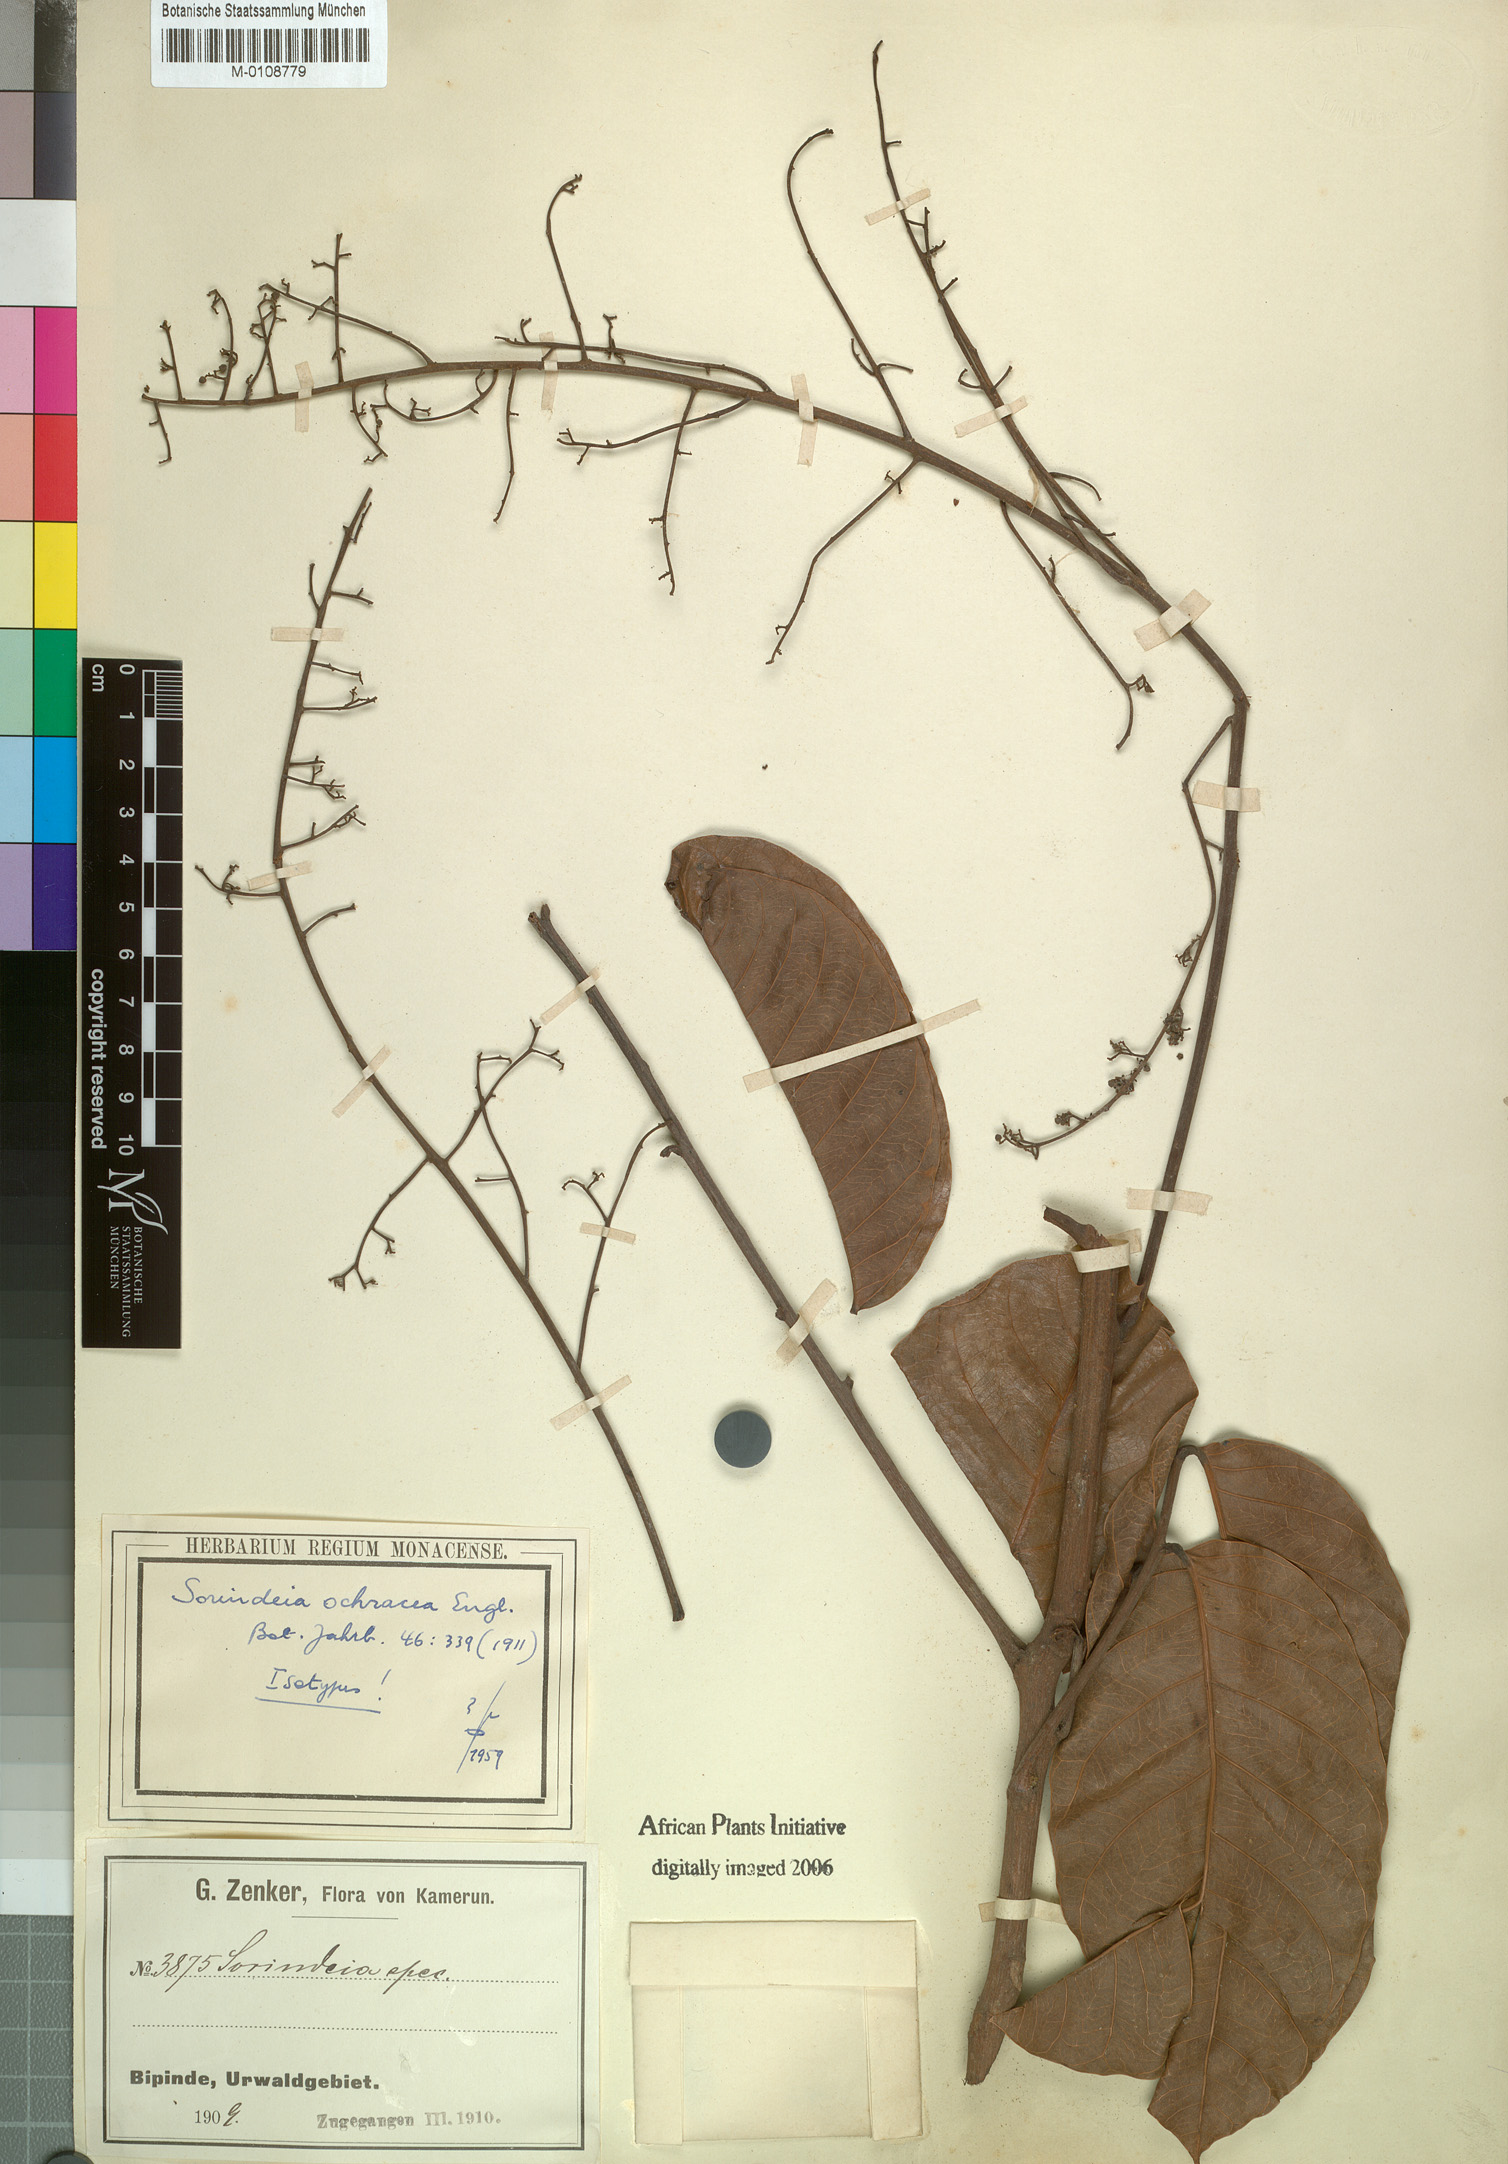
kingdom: Plantae
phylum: Tracheophyta
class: Magnoliopsida
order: Sapindales
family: Anacardiaceae
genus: Sorindeia
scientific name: Sorindeia africana
